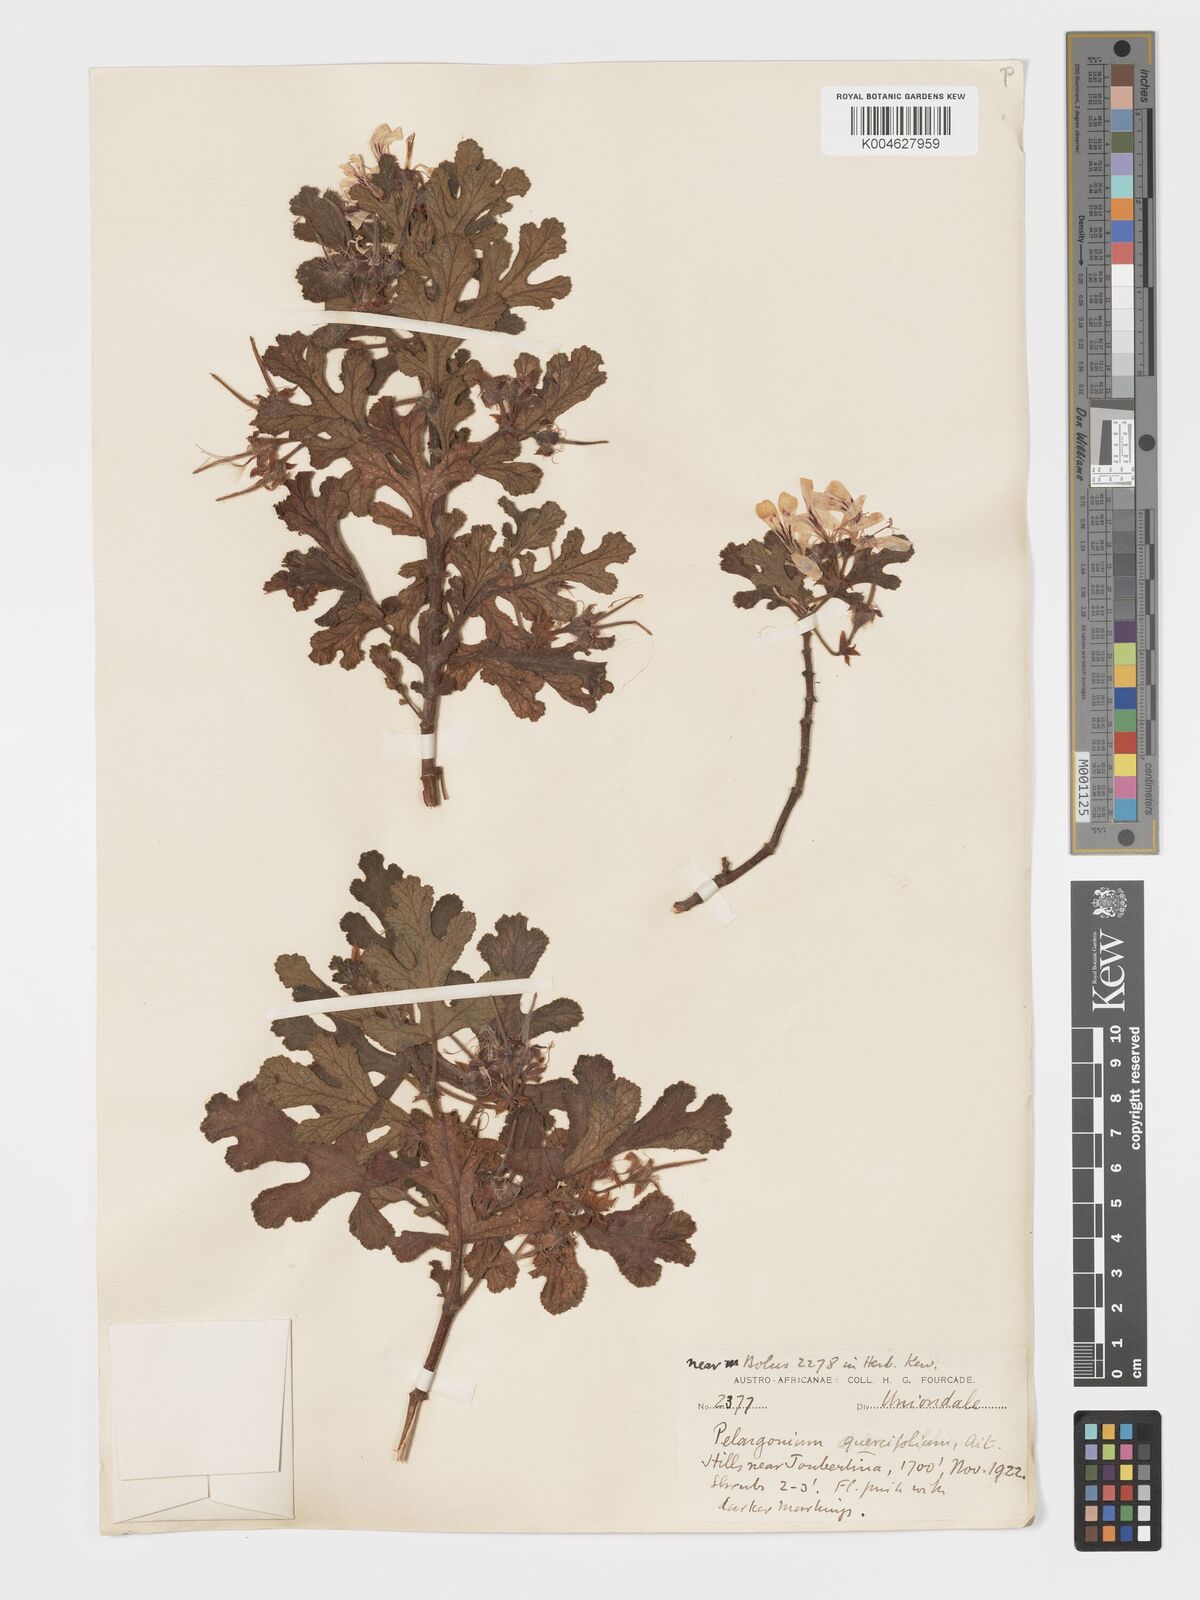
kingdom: Plantae
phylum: Tracheophyta
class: Magnoliopsida
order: Geraniales
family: Geraniaceae
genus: Pelargonium
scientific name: Pelargonium quercifolium
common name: Oakleaf geranium
